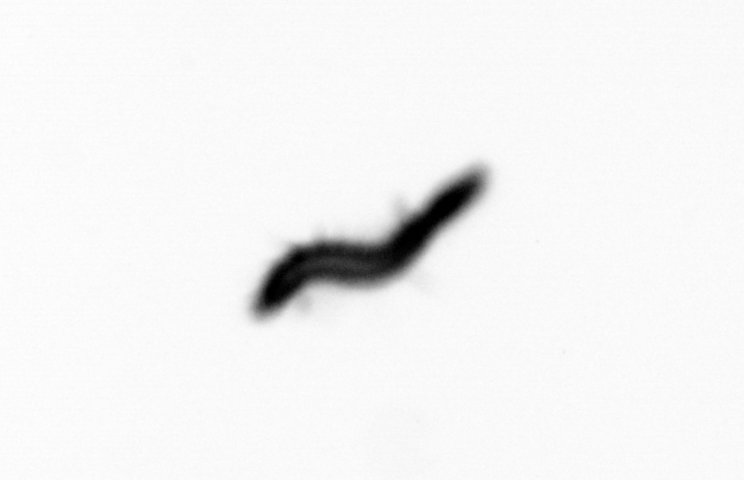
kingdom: Animalia
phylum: Annelida
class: Polychaeta
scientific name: Polychaeta
